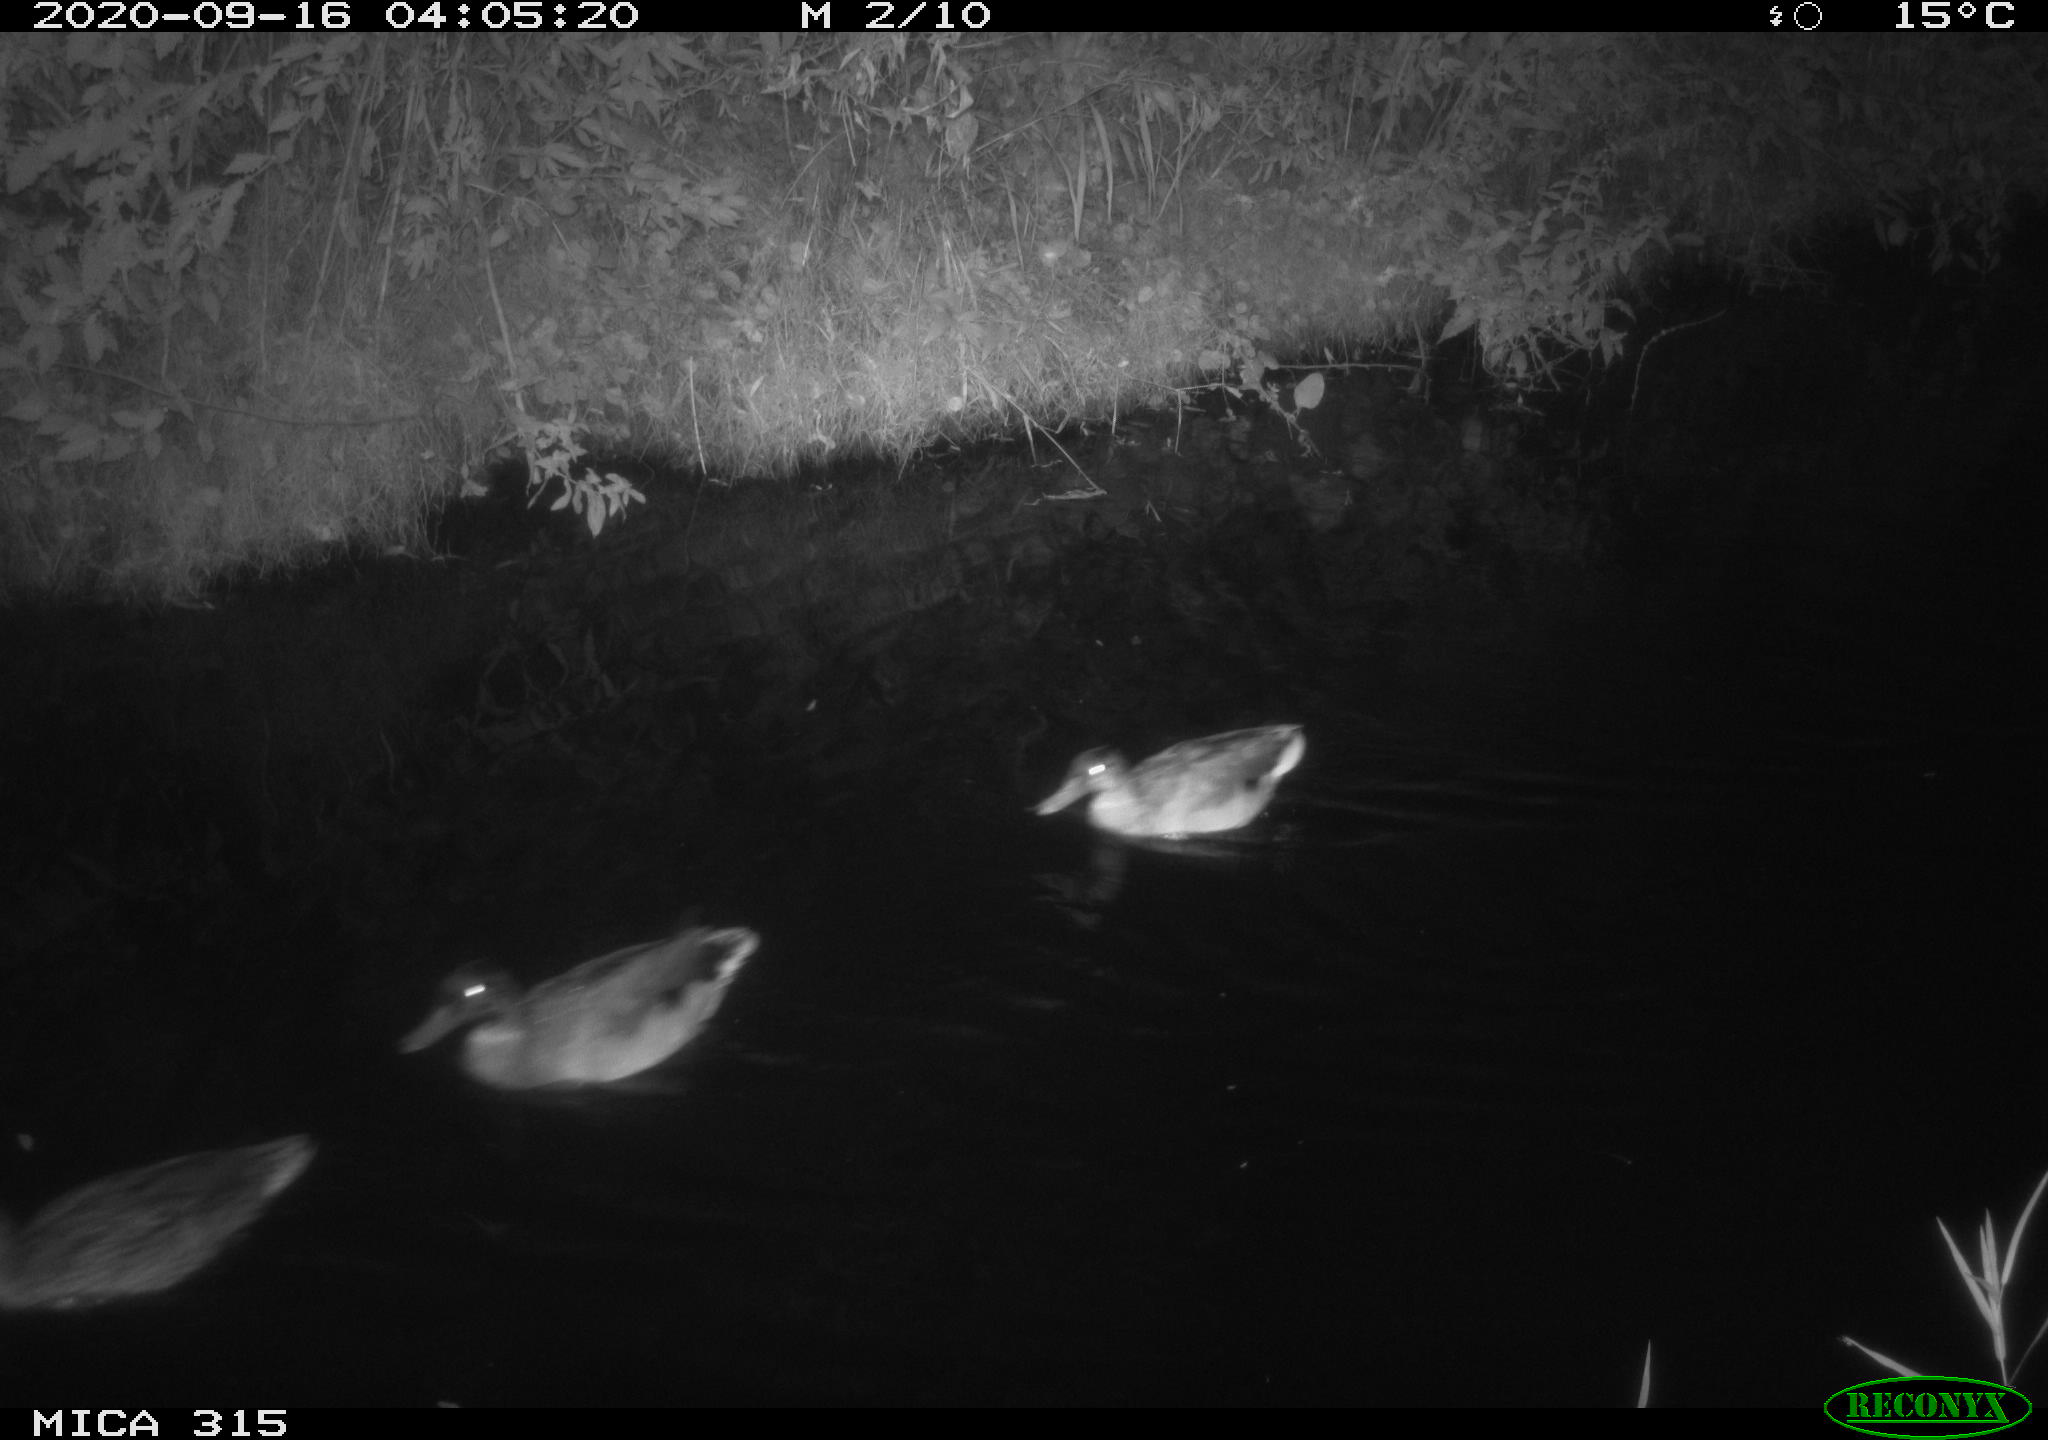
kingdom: Animalia
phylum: Chordata
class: Aves
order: Anseriformes
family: Anatidae
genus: Anas
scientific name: Anas platyrhynchos
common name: Mallard
